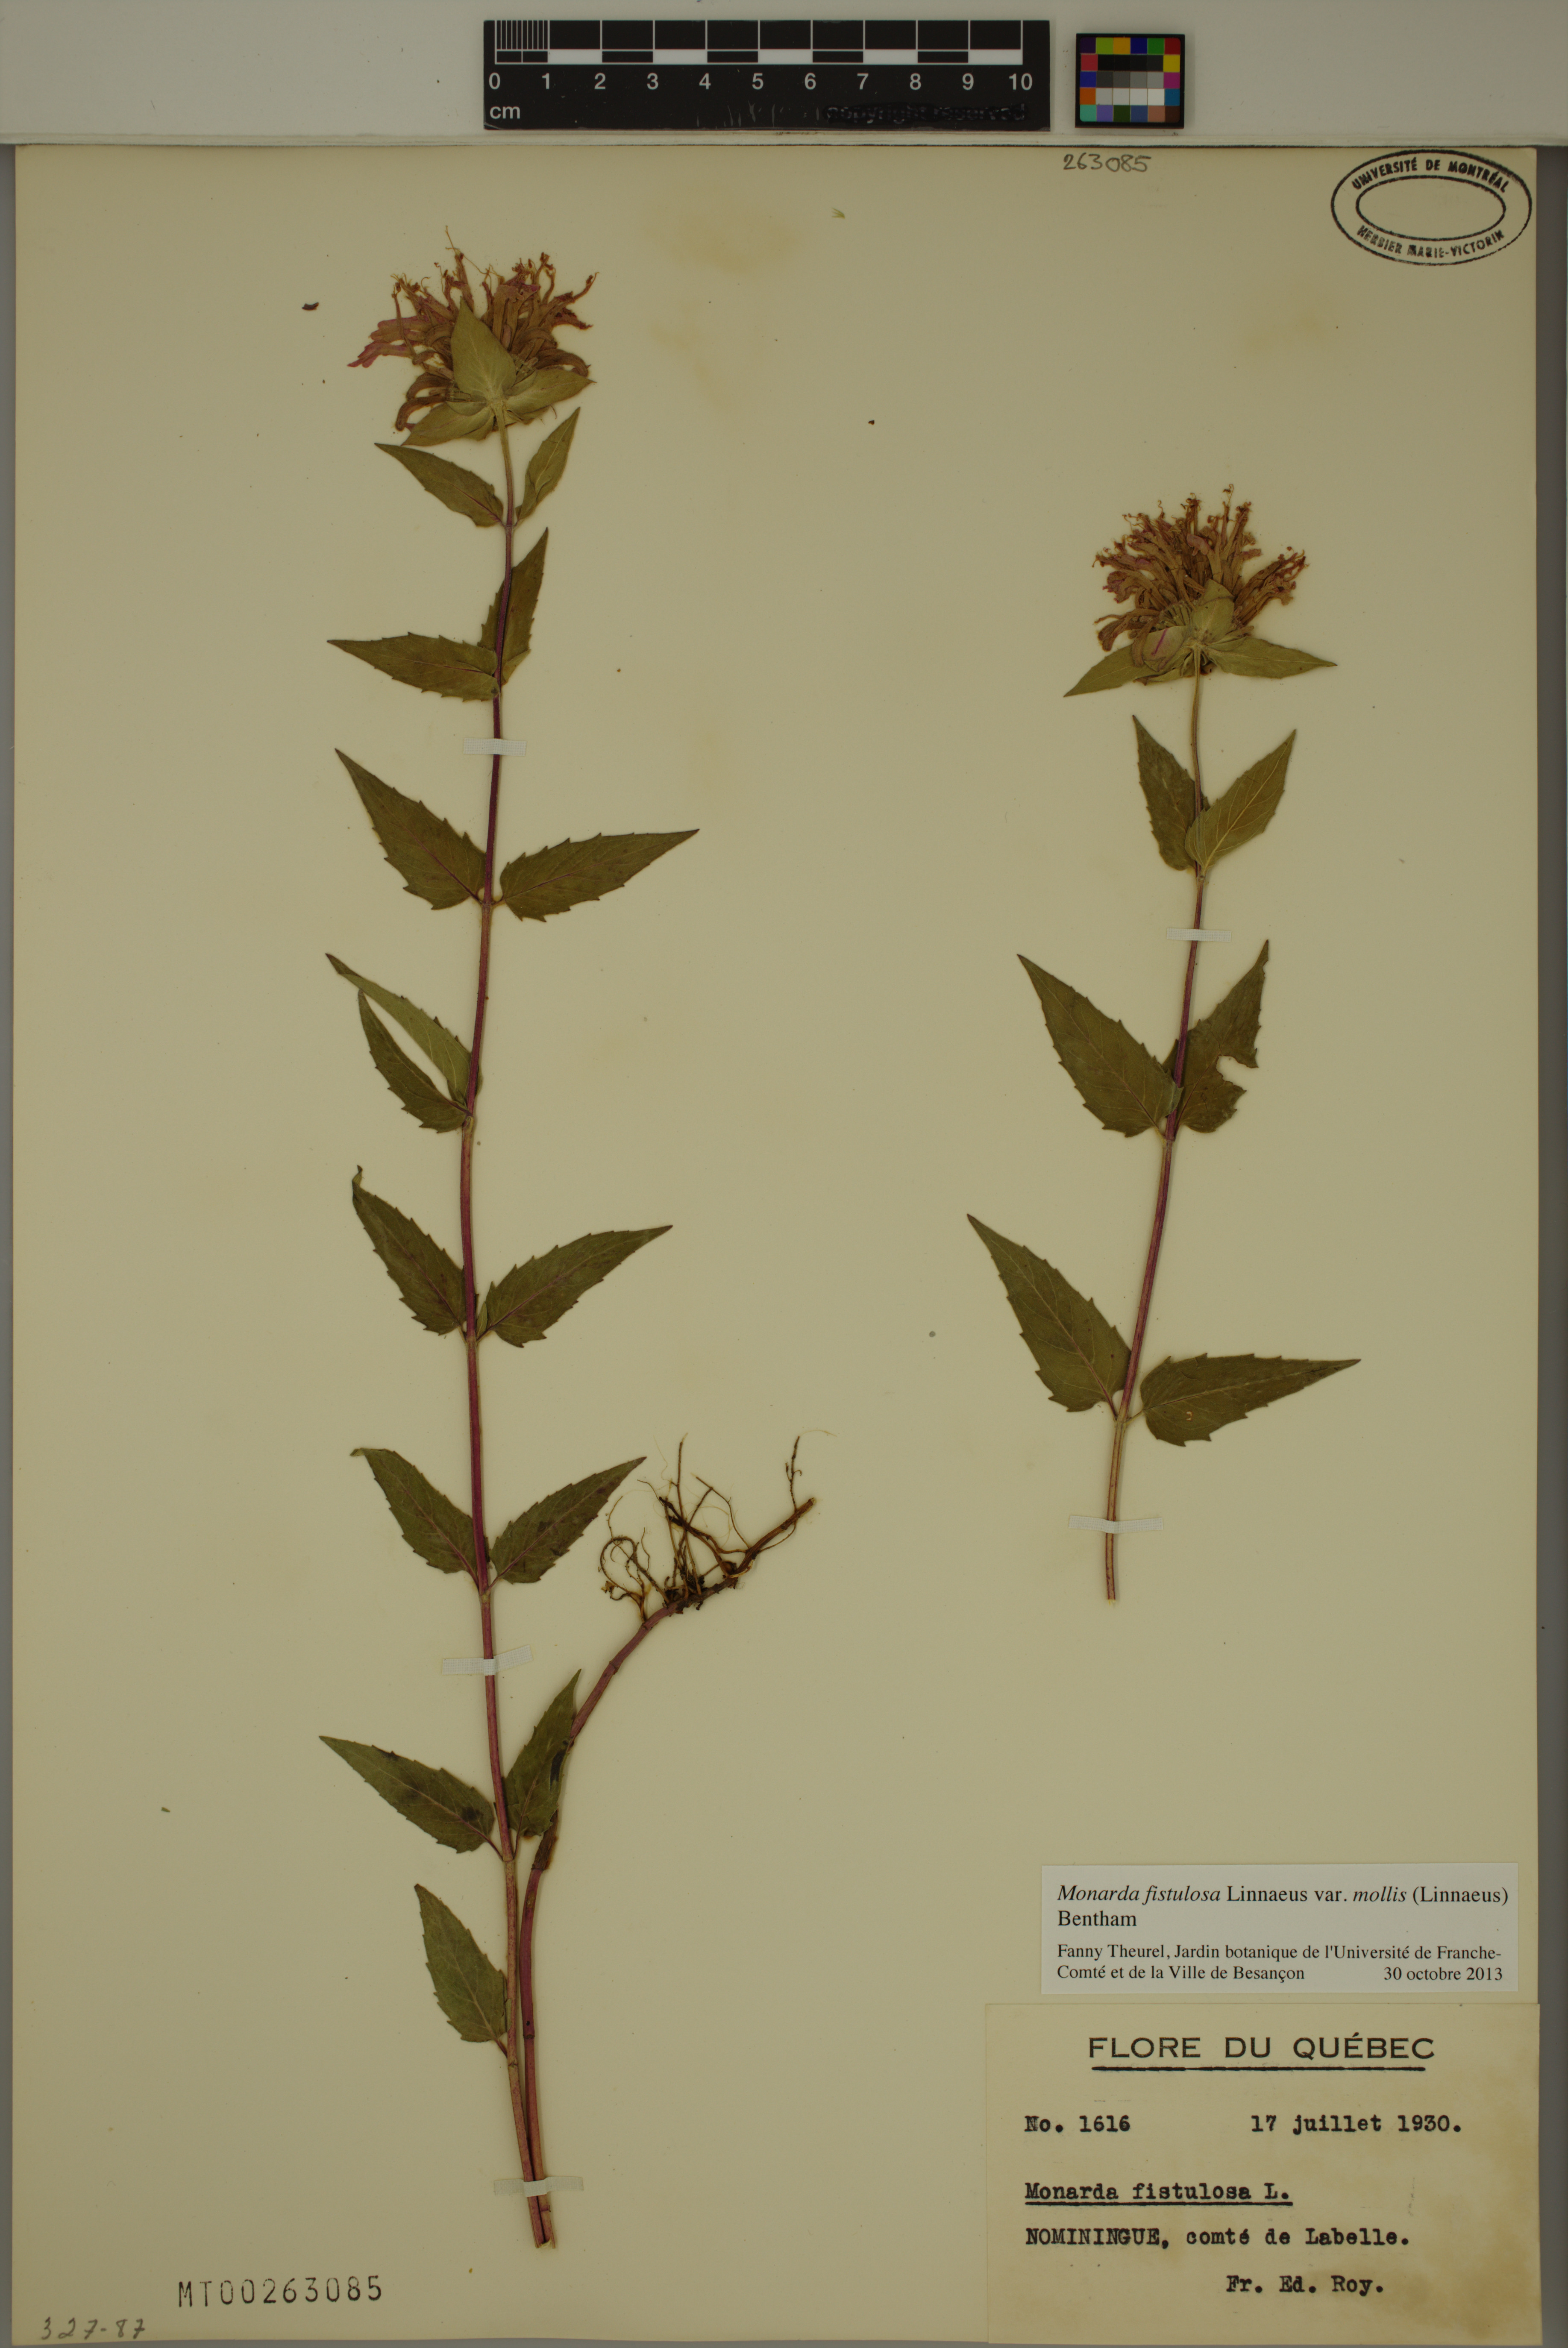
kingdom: Plantae
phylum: Tracheophyta
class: Magnoliopsida
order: Lamiales
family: Lamiaceae
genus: Monarda
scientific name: Monarda fistulosa
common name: Purple beebalm
